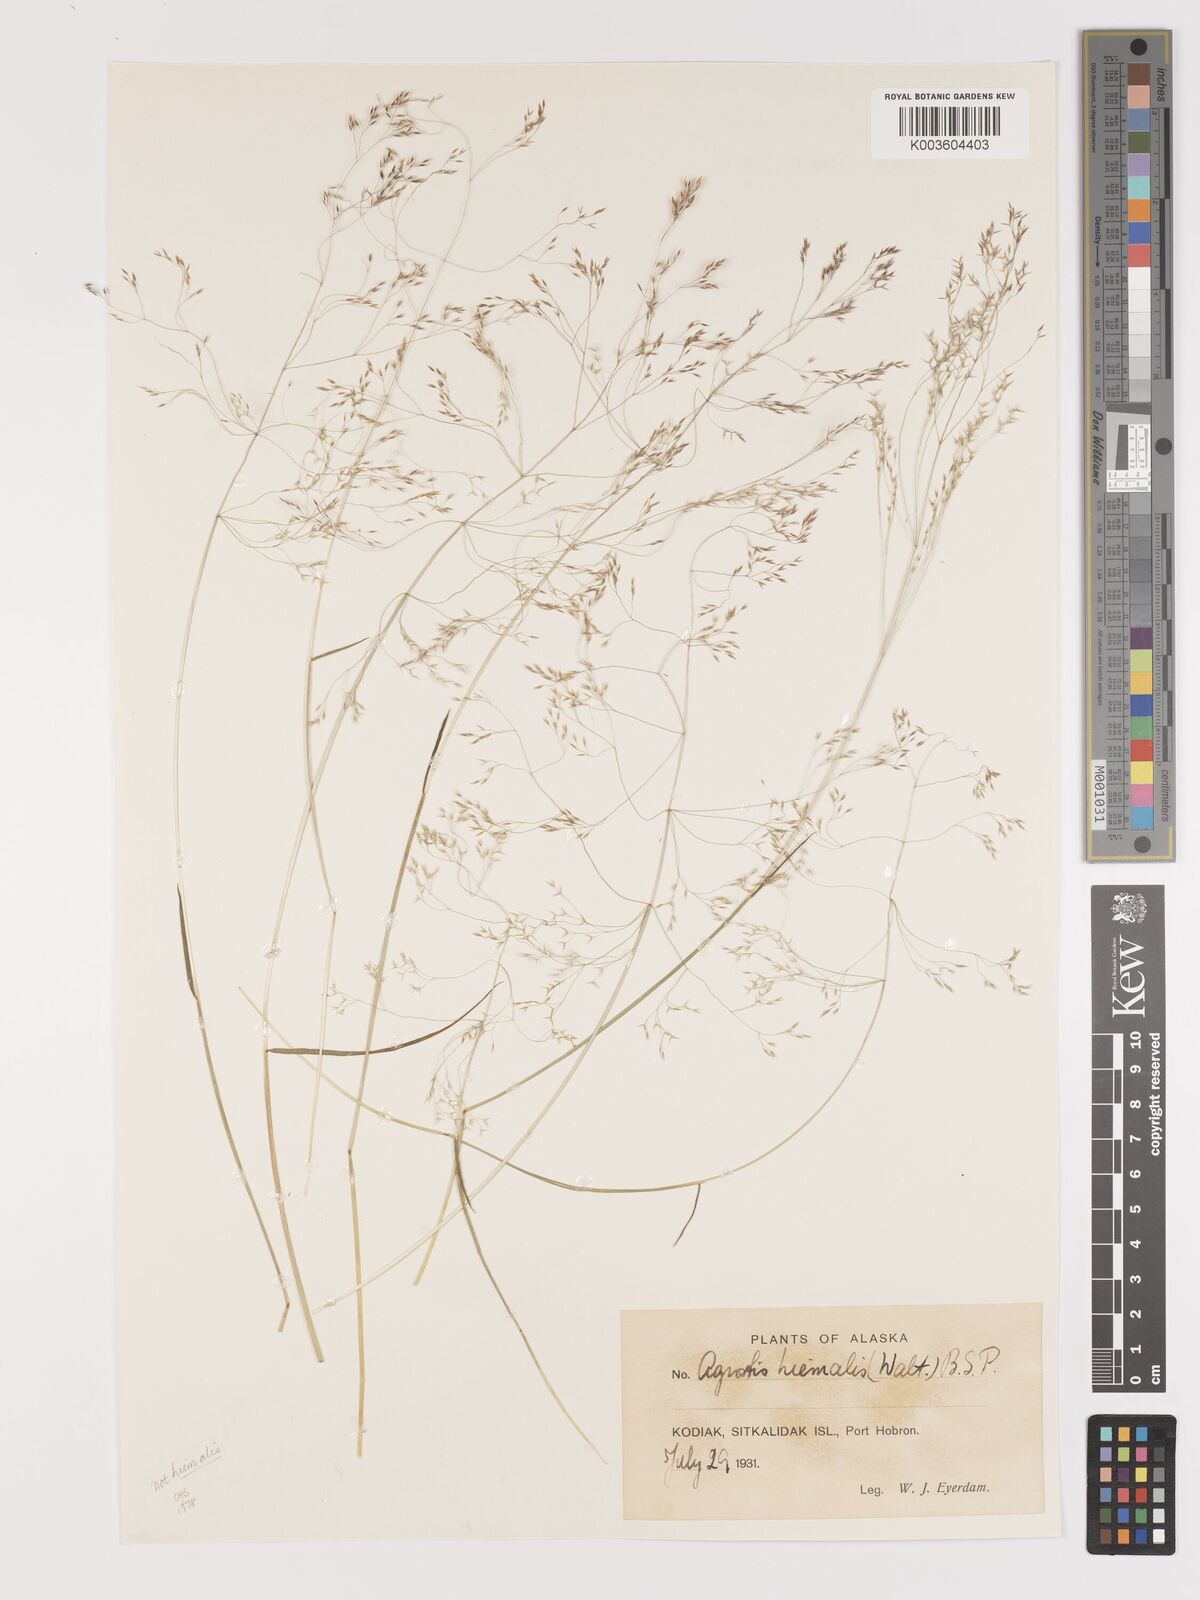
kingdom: Plantae
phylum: Tracheophyta
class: Liliopsida
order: Poales
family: Poaceae
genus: Agrostis
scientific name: Agrostis hyemalis
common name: Small bent
